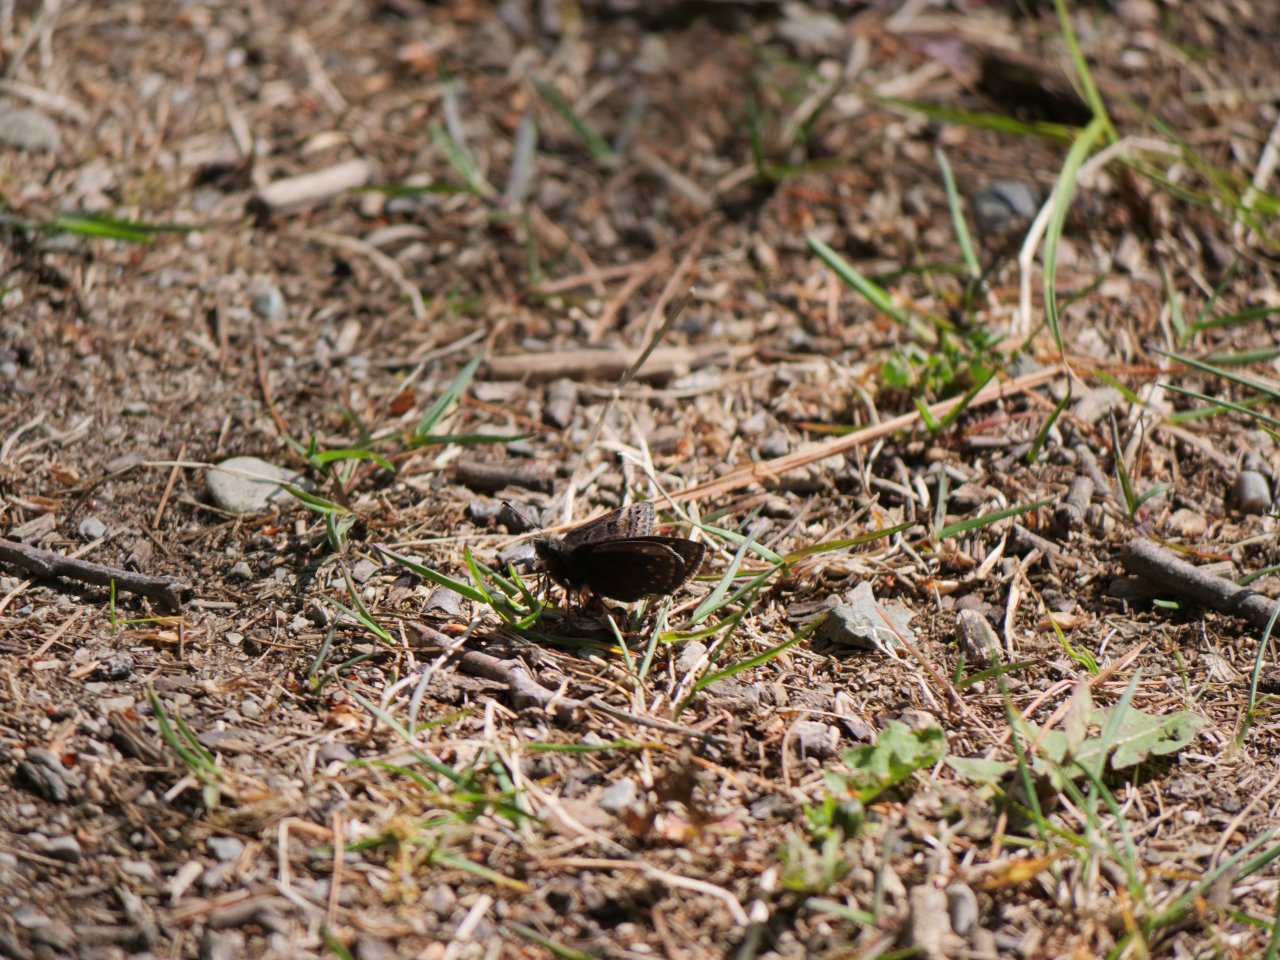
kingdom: Animalia
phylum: Arthropoda
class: Insecta
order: Lepidoptera
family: Hesperiidae
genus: Erynnis
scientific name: Erynnis
